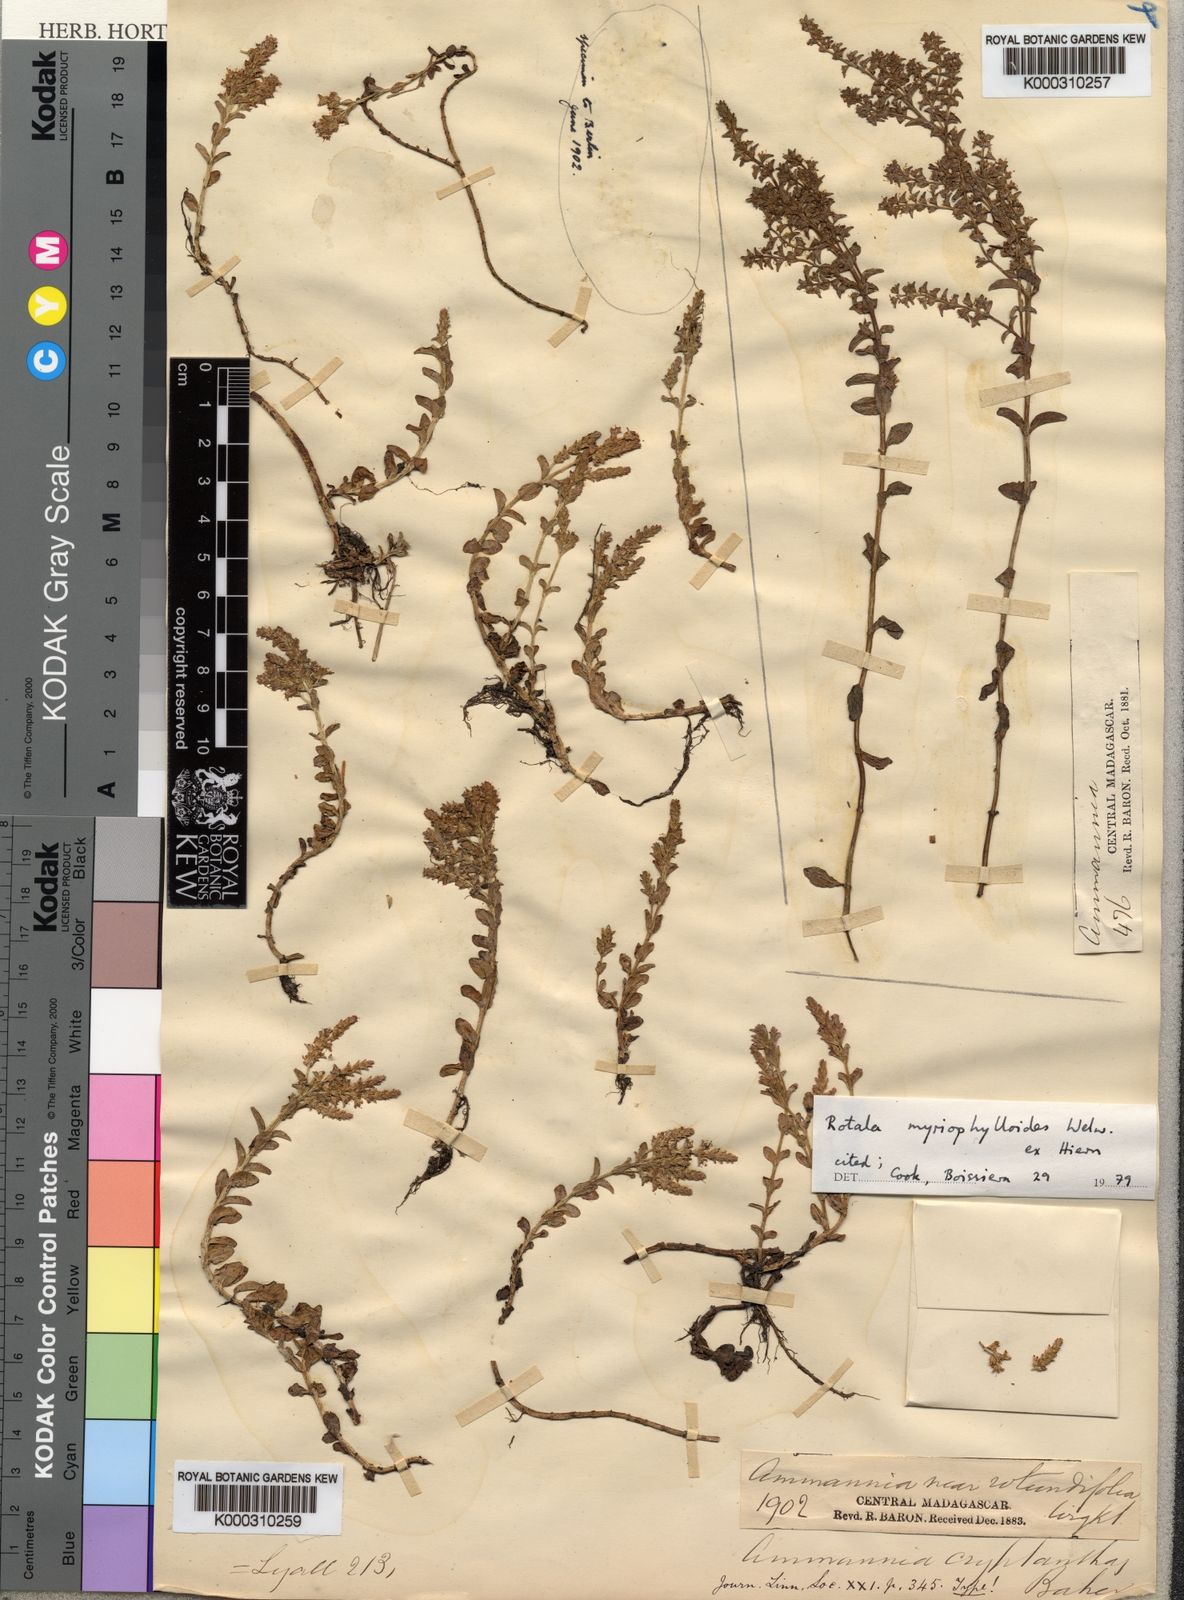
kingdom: Plantae
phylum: Tracheophyta
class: Magnoliopsida
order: Myrtales
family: Lythraceae
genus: Rotala
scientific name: Rotala myriophylloides
